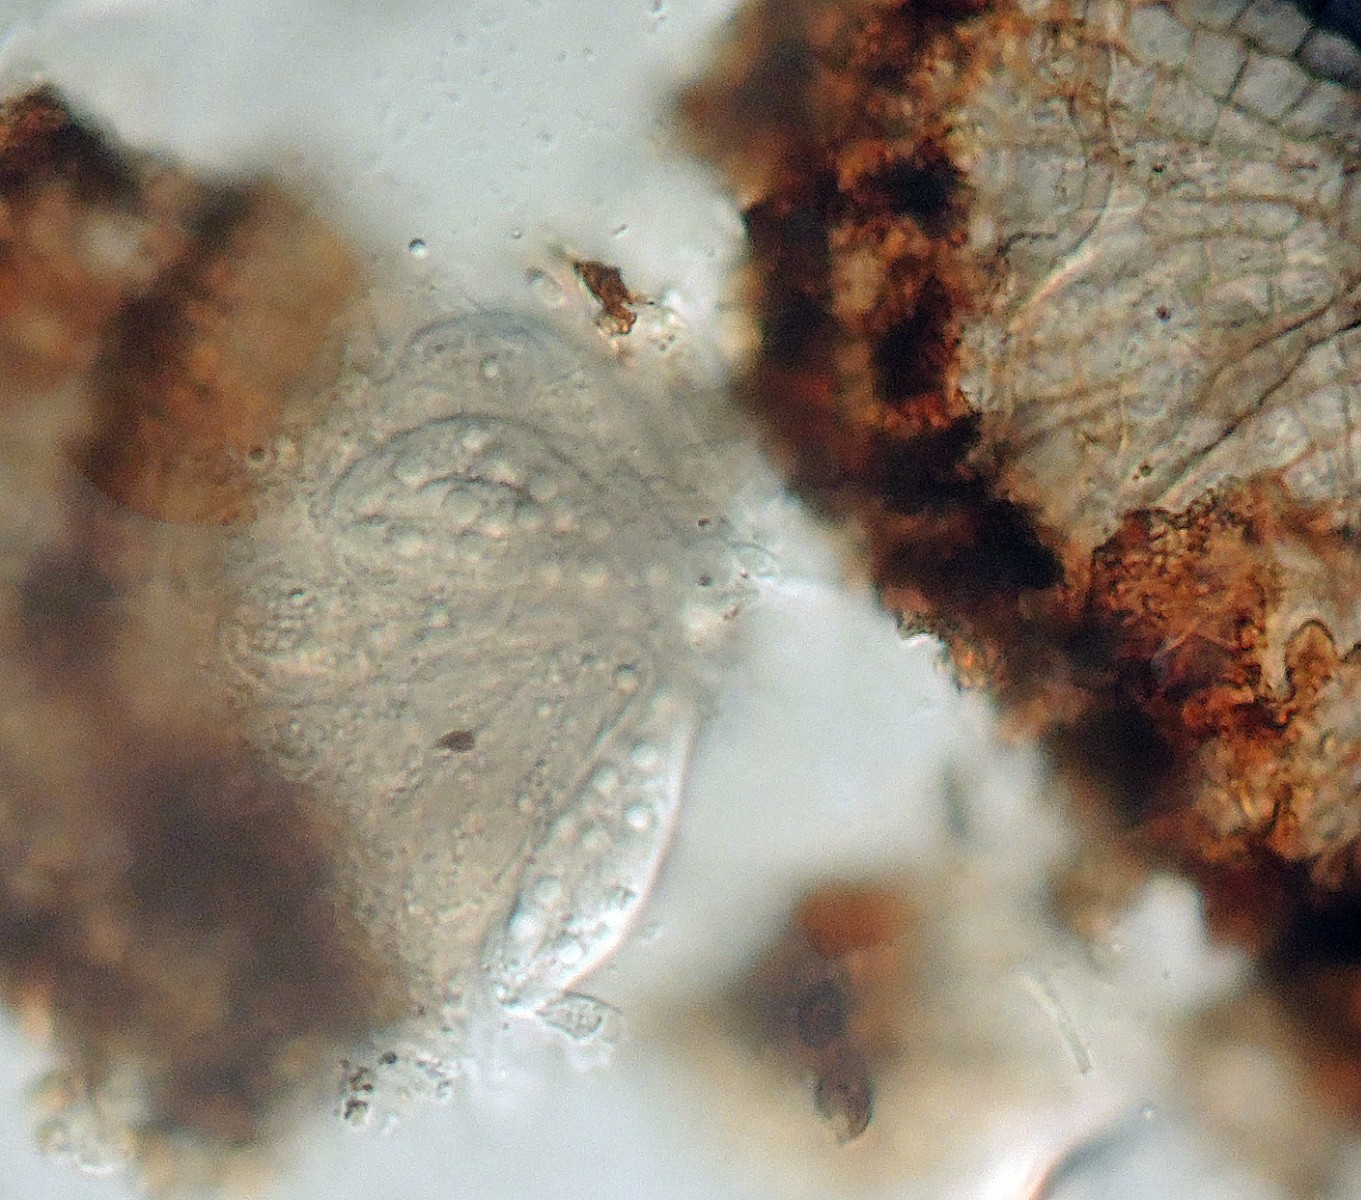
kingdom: Fungi
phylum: Ascomycota
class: Dothideomycetes
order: Microthyriales
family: Microthyriaceae
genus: Microthyrium
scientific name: Microthyrium ciliatum
